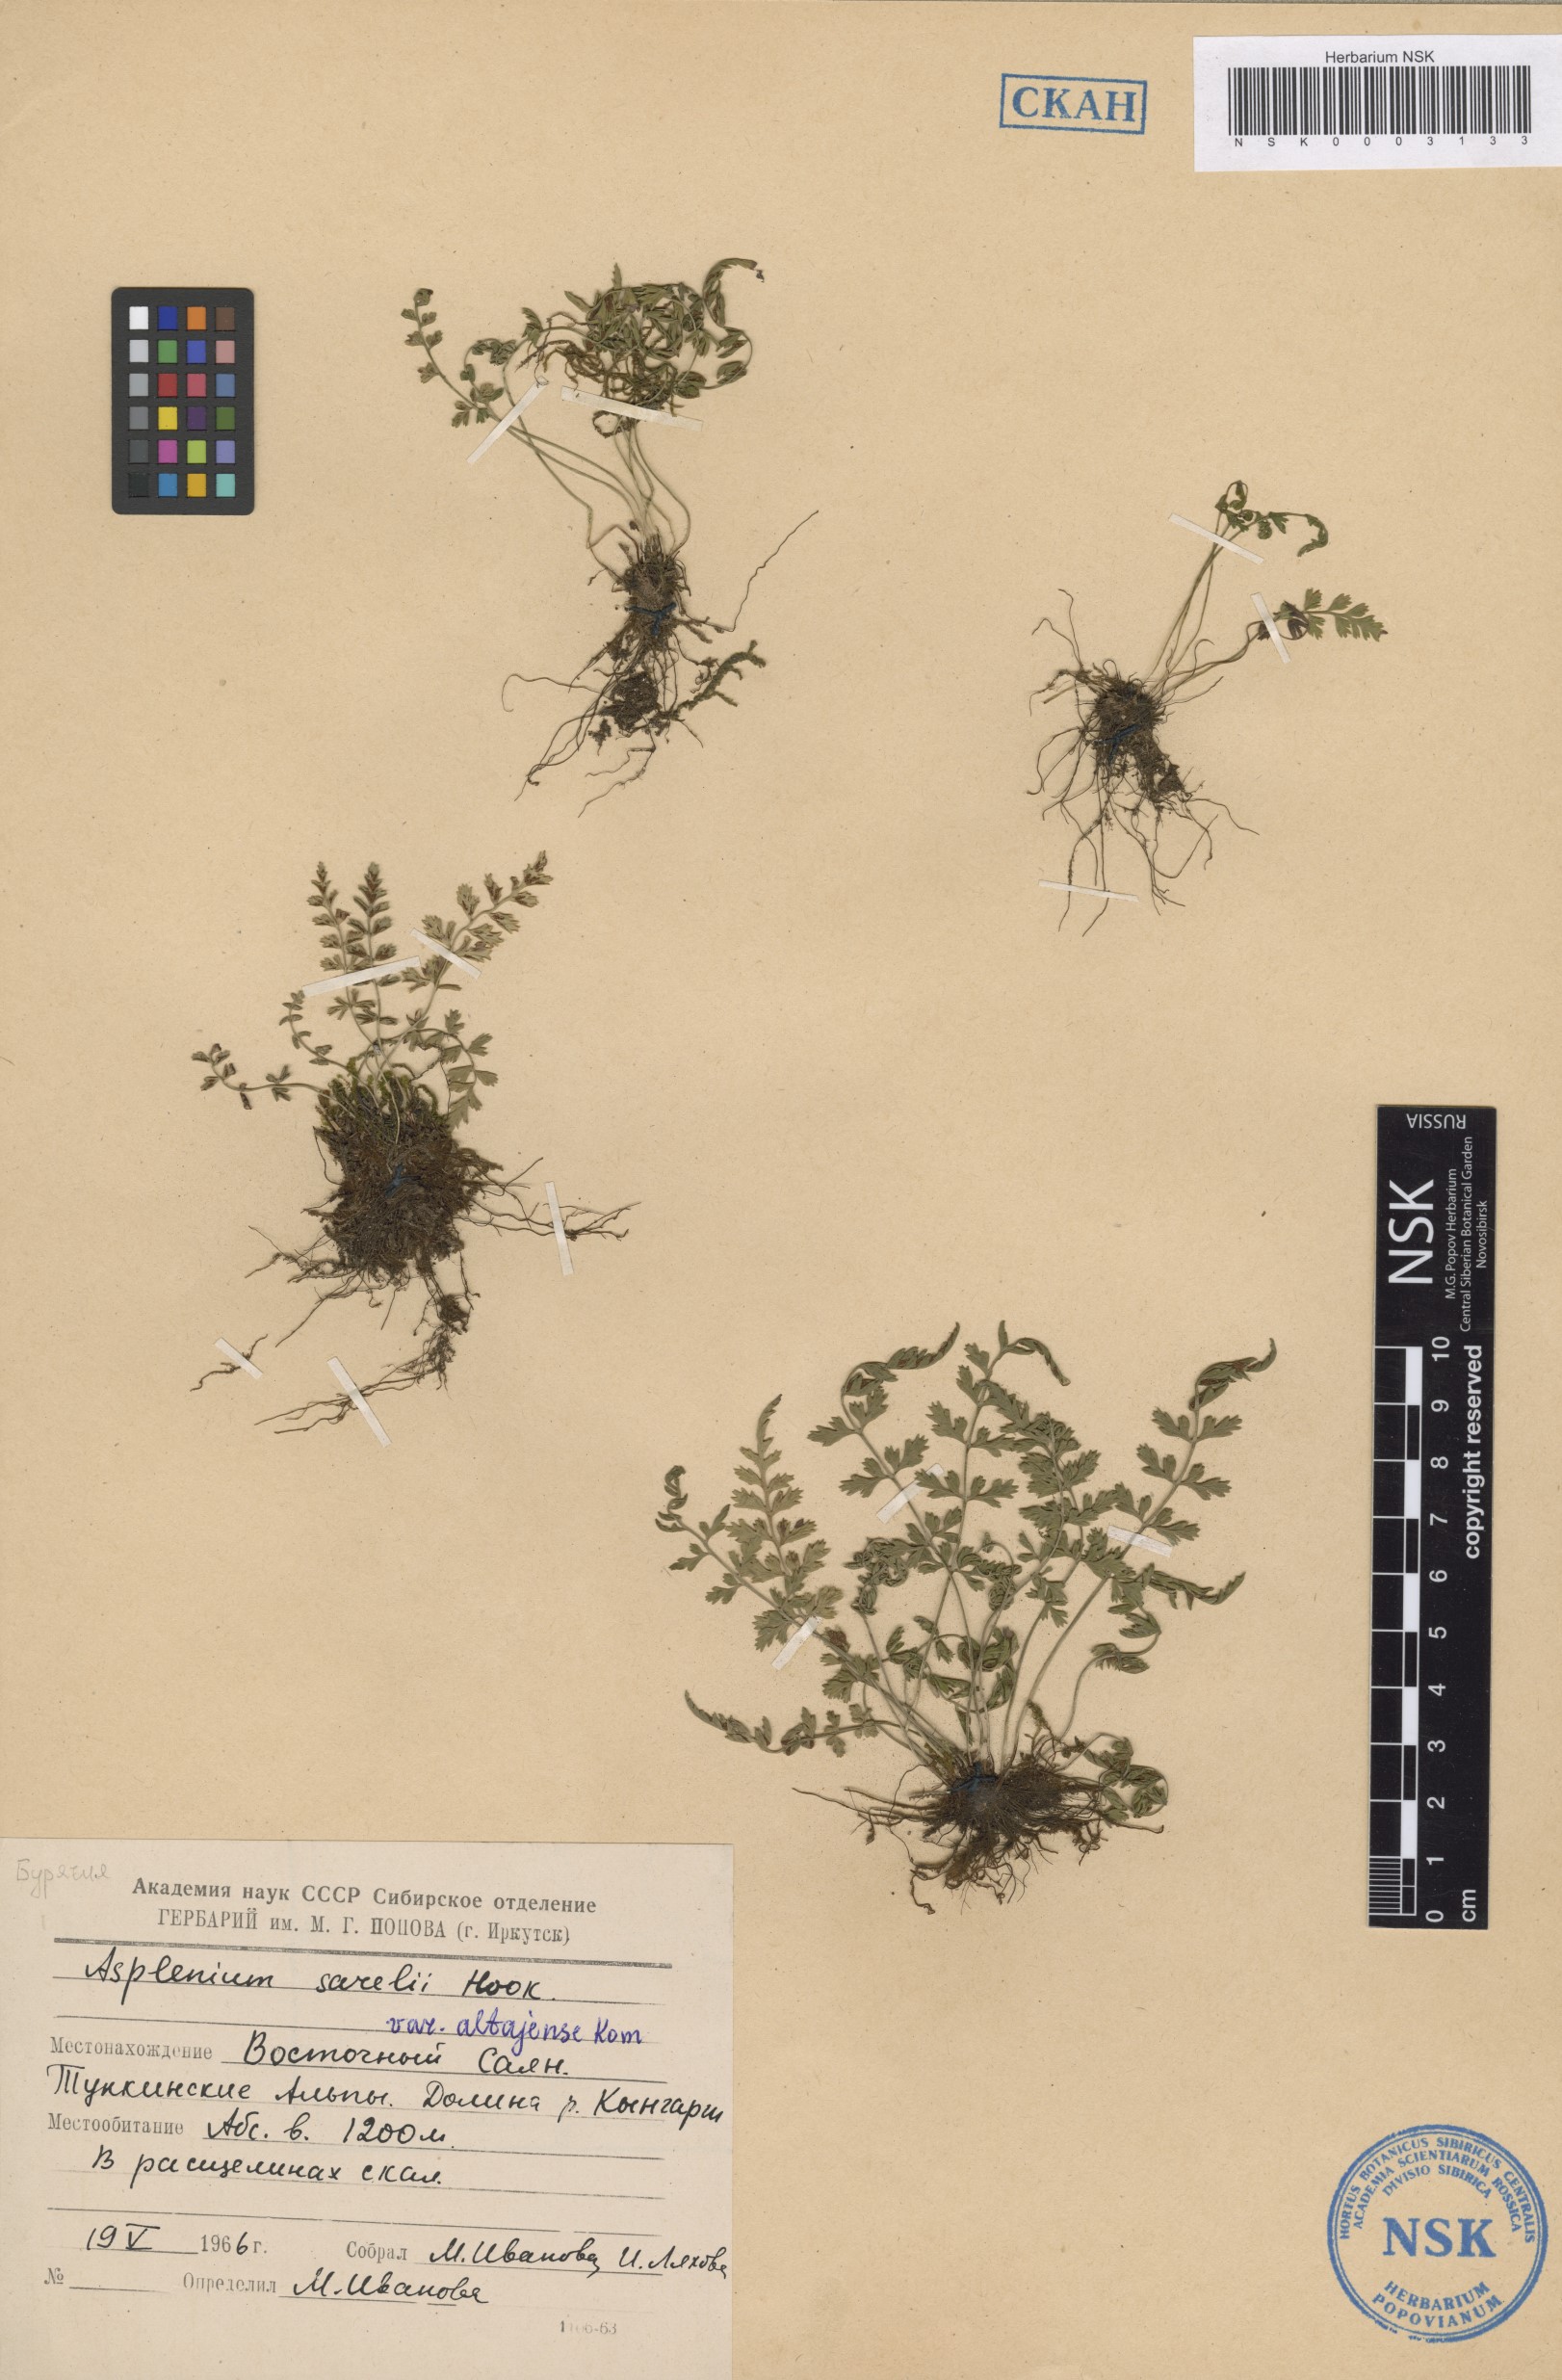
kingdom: Plantae
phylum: Tracheophyta
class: Polypodiopsida
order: Polypodiales
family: Aspleniaceae
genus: Asplenium
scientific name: Asplenium altajense
